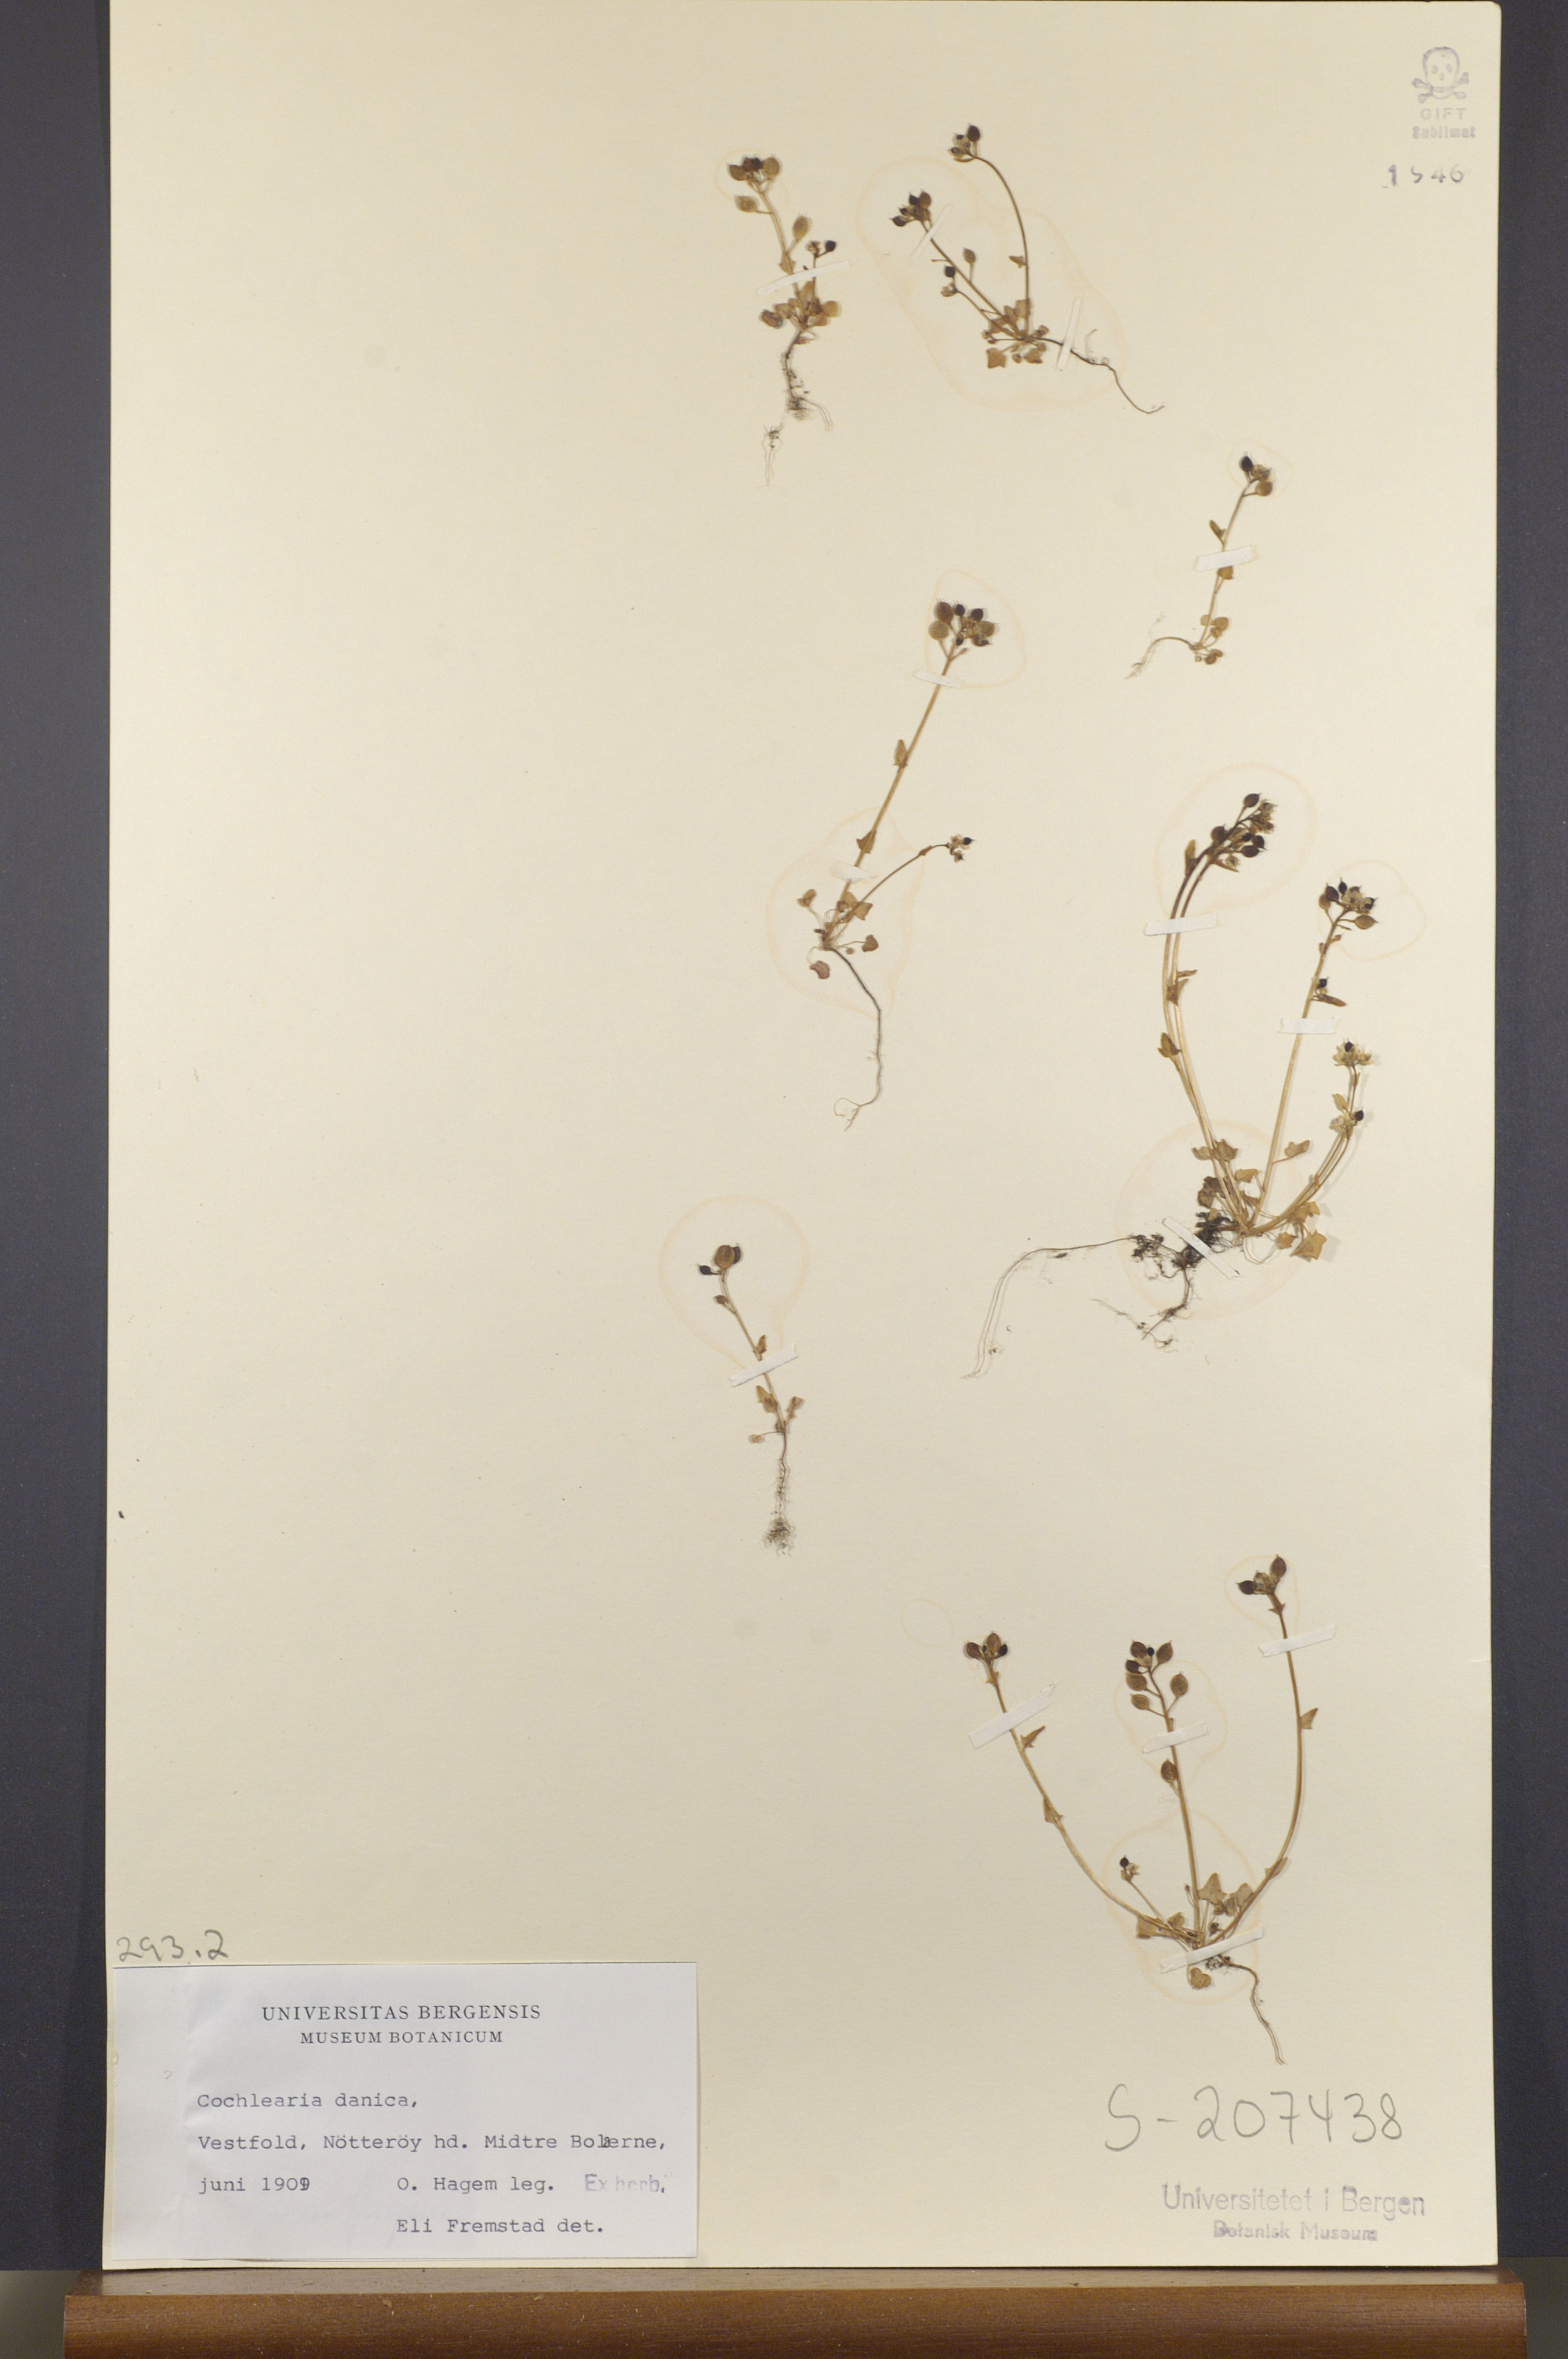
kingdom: Plantae
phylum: Tracheophyta
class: Magnoliopsida
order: Brassicales
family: Brassicaceae
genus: Cochlearia
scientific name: Cochlearia danica
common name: Early scurvygrass
